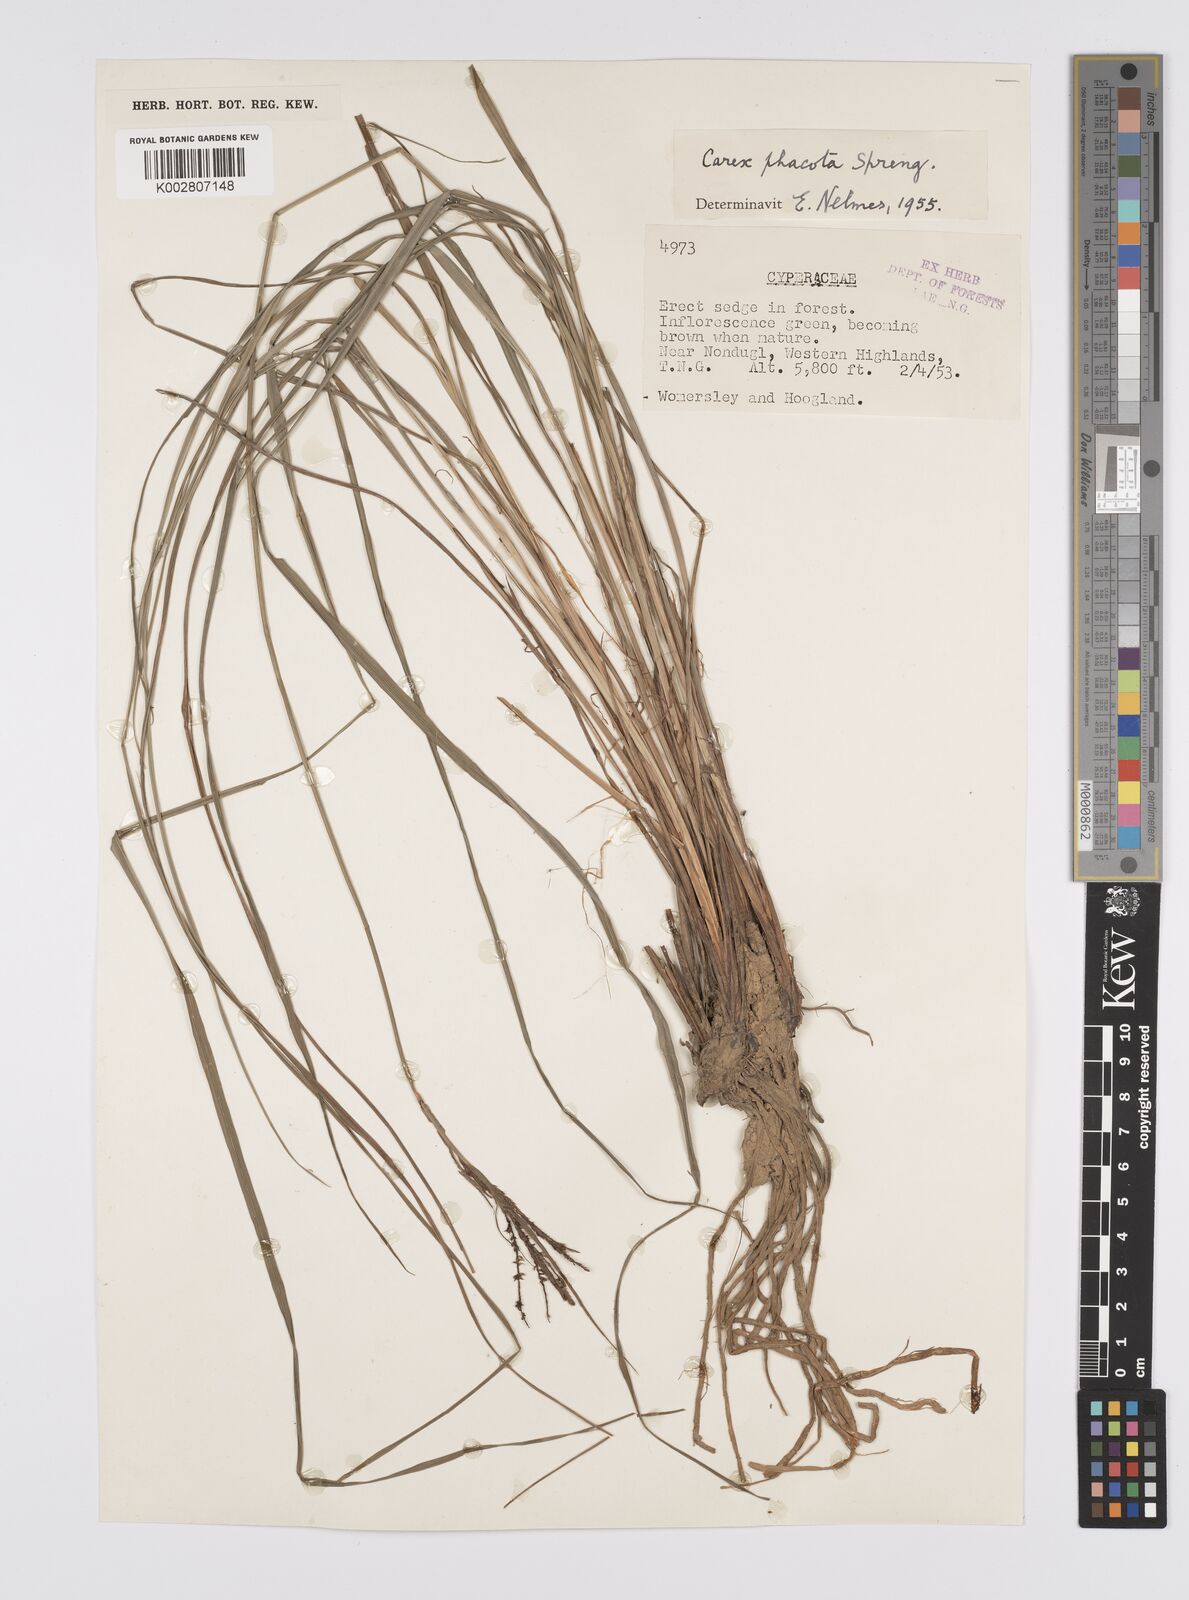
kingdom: Plantae
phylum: Tracheophyta
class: Liliopsida
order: Poales
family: Cyperaceae
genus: Carex
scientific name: Carex phacota
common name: Lakeshore sedge
